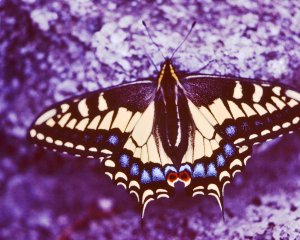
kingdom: Animalia
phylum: Arthropoda
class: Insecta
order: Lepidoptera
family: Papilionidae
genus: Papilio
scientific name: Papilio zelicaon
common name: Anise Swallowtail
